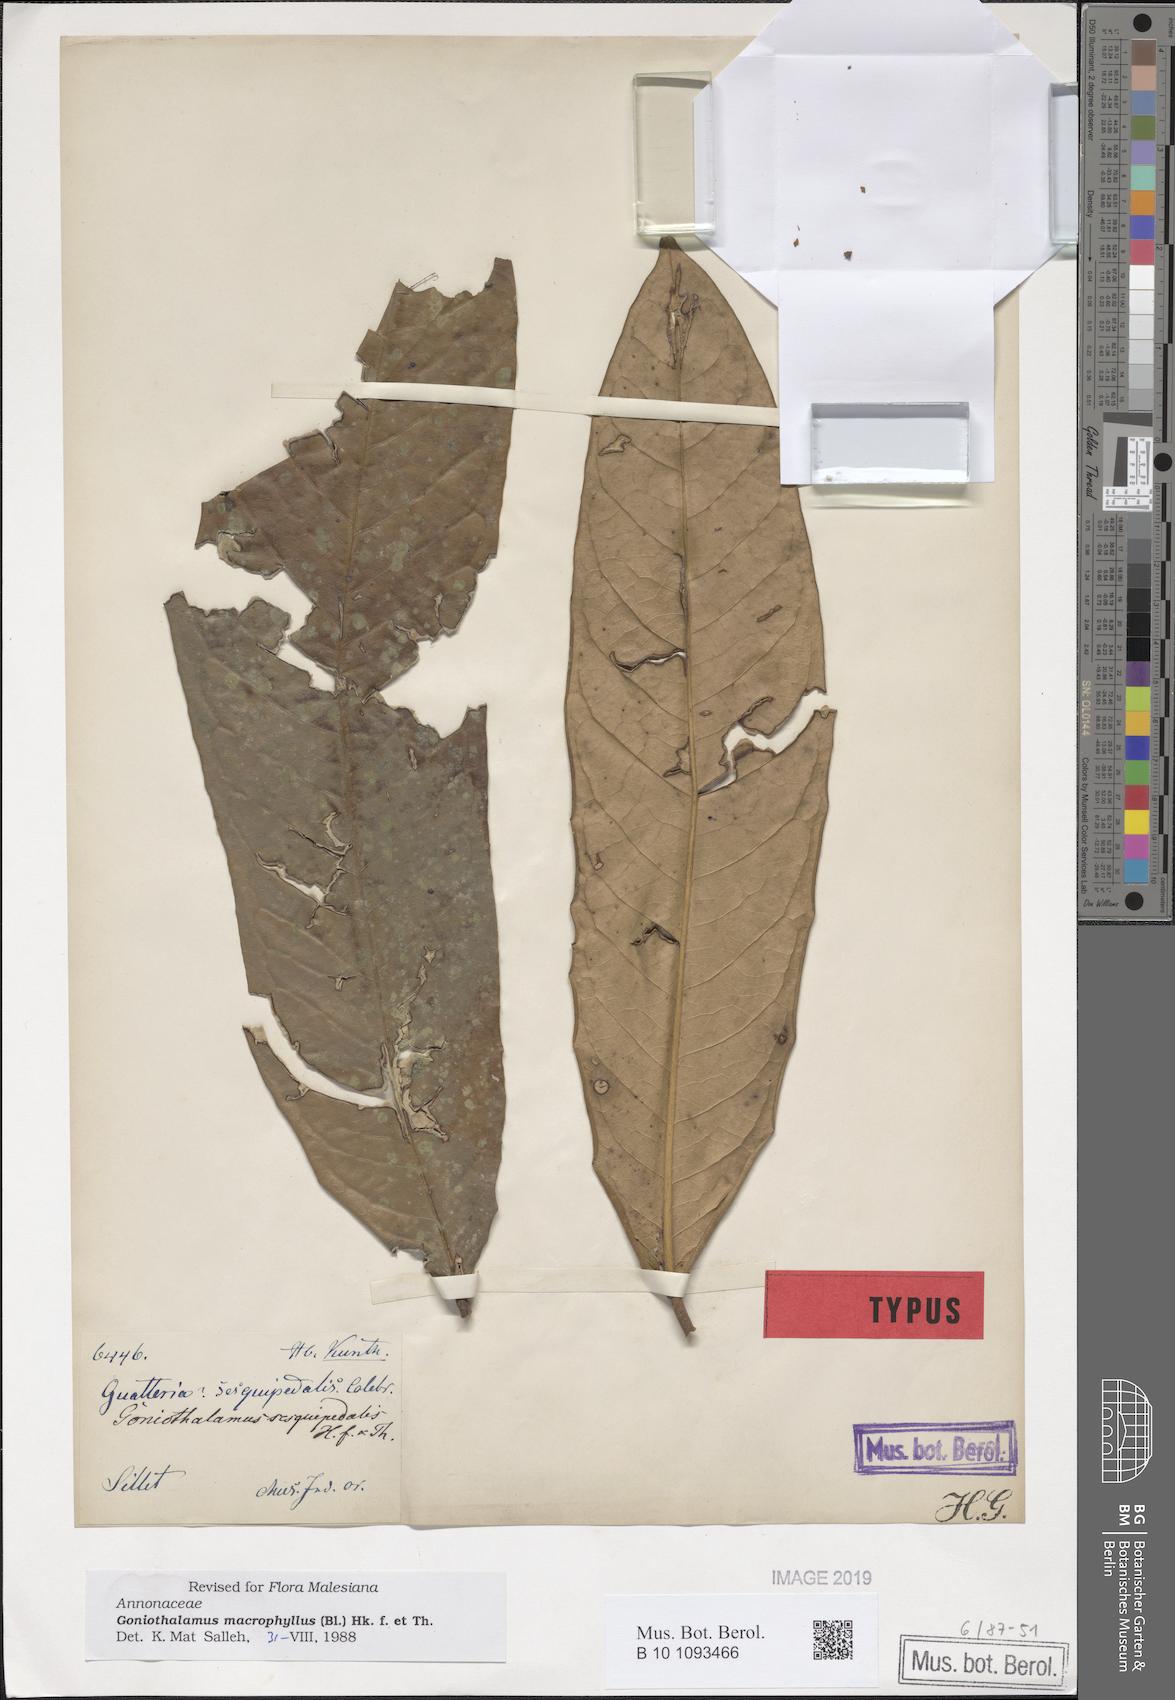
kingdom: Plantae
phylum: Tracheophyta
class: Magnoliopsida
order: Magnoliales
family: Annonaceae
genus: Goniothalamus
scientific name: Goniothalamus sesquipedalis
